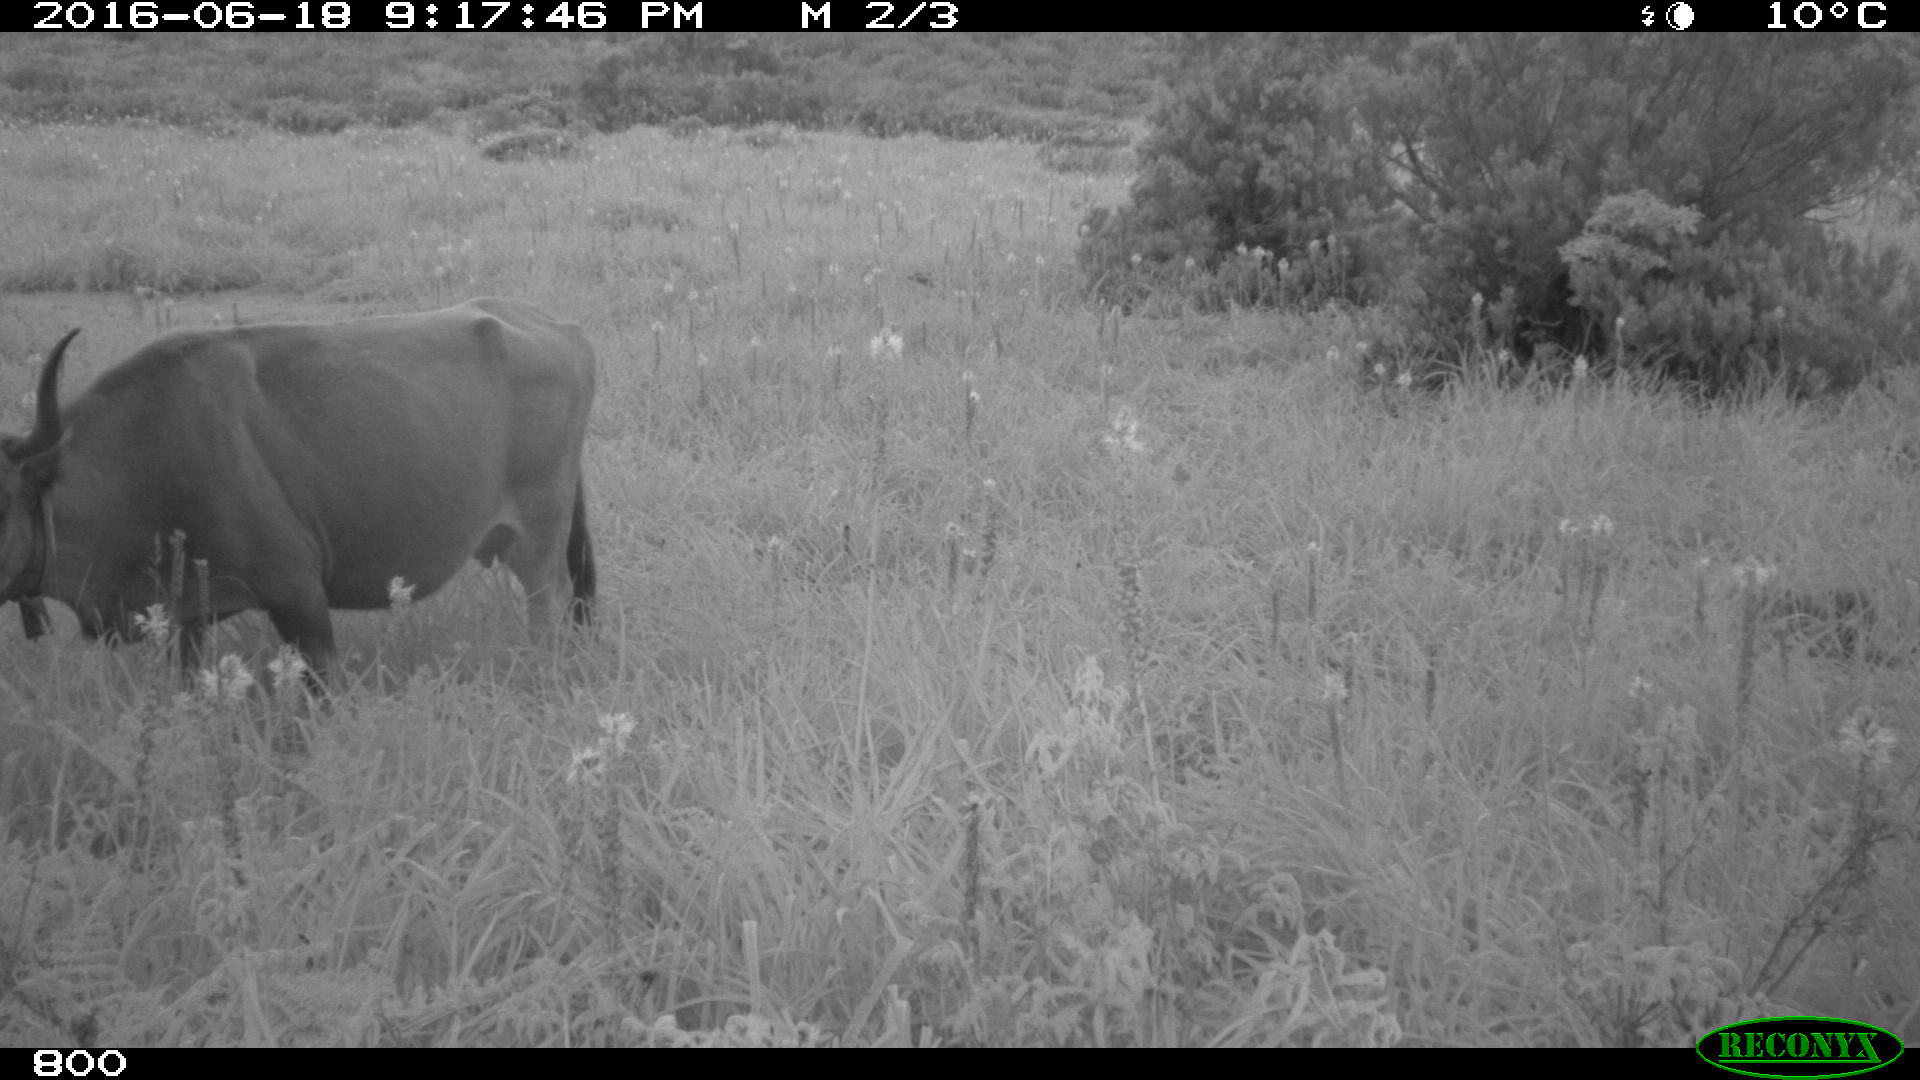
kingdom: Animalia
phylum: Chordata
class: Mammalia
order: Artiodactyla
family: Bovidae
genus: Bos
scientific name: Bos taurus
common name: Domesticated cattle
